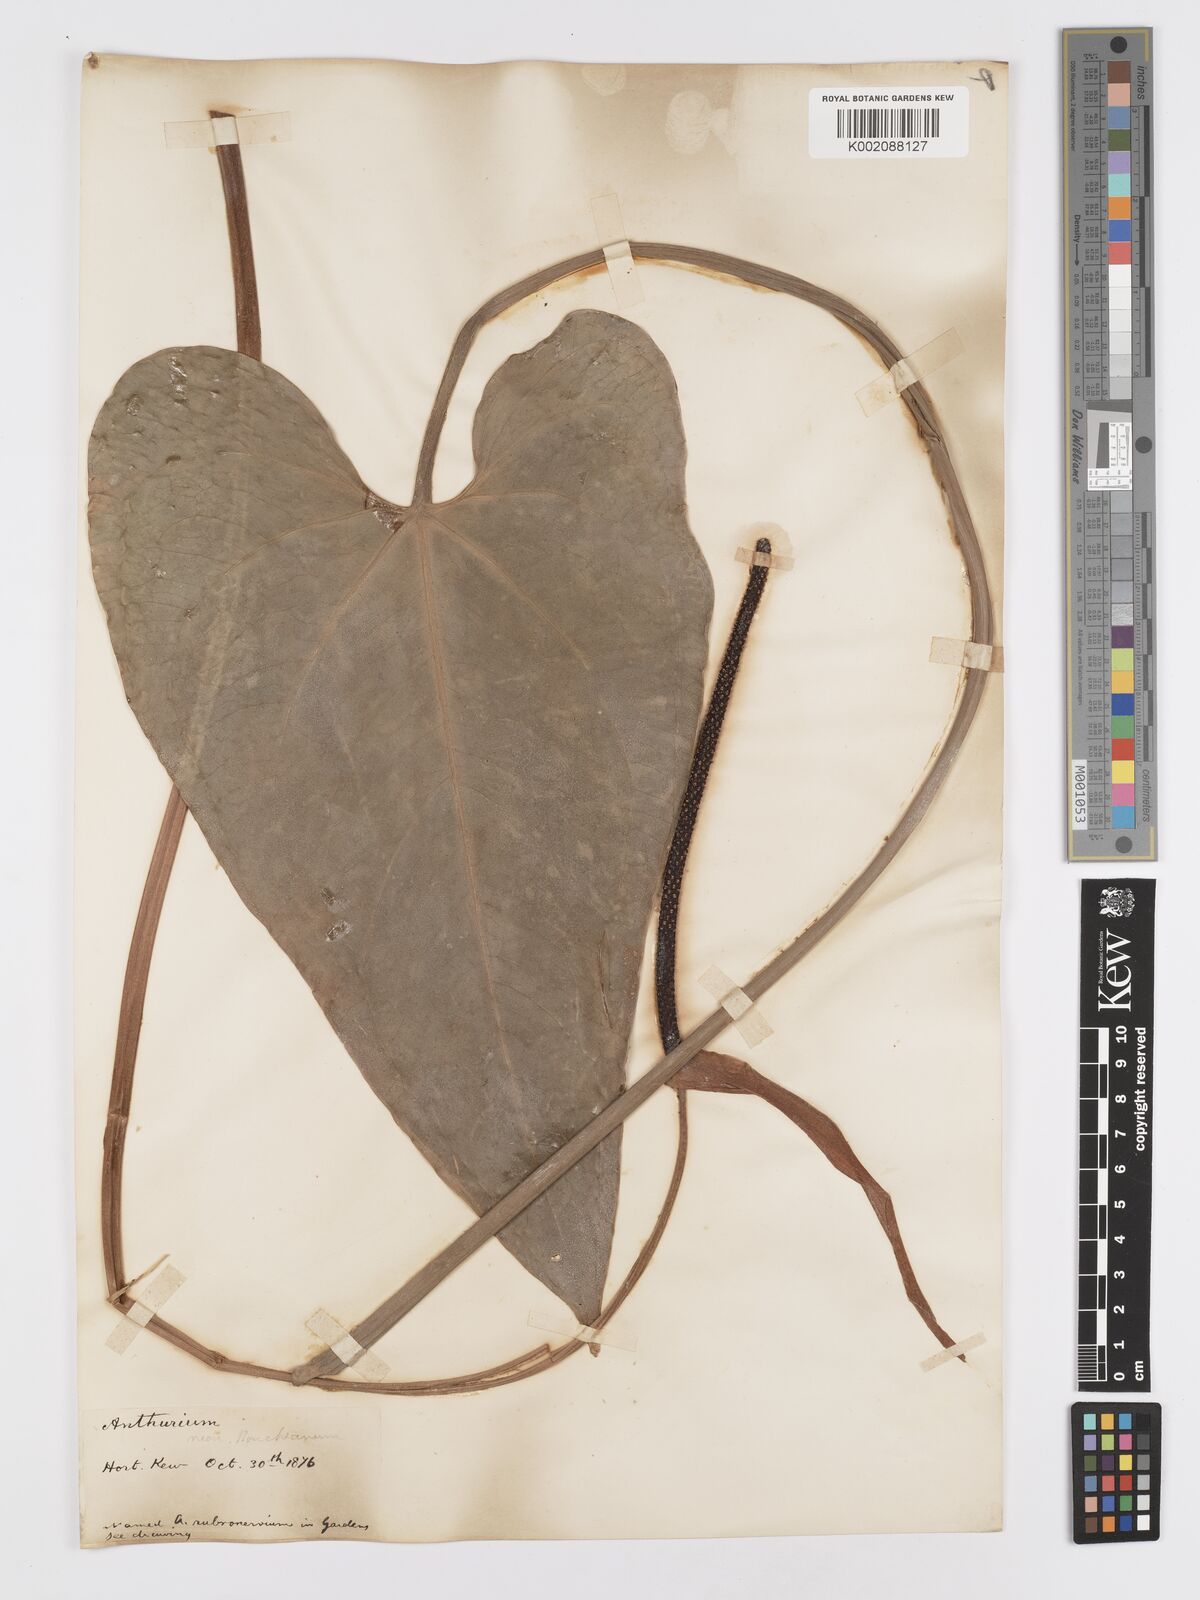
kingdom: Plantae
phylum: Tracheophyta
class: Liliopsida
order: Alismatales
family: Araceae
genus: Anthurium
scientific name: Anthurium
